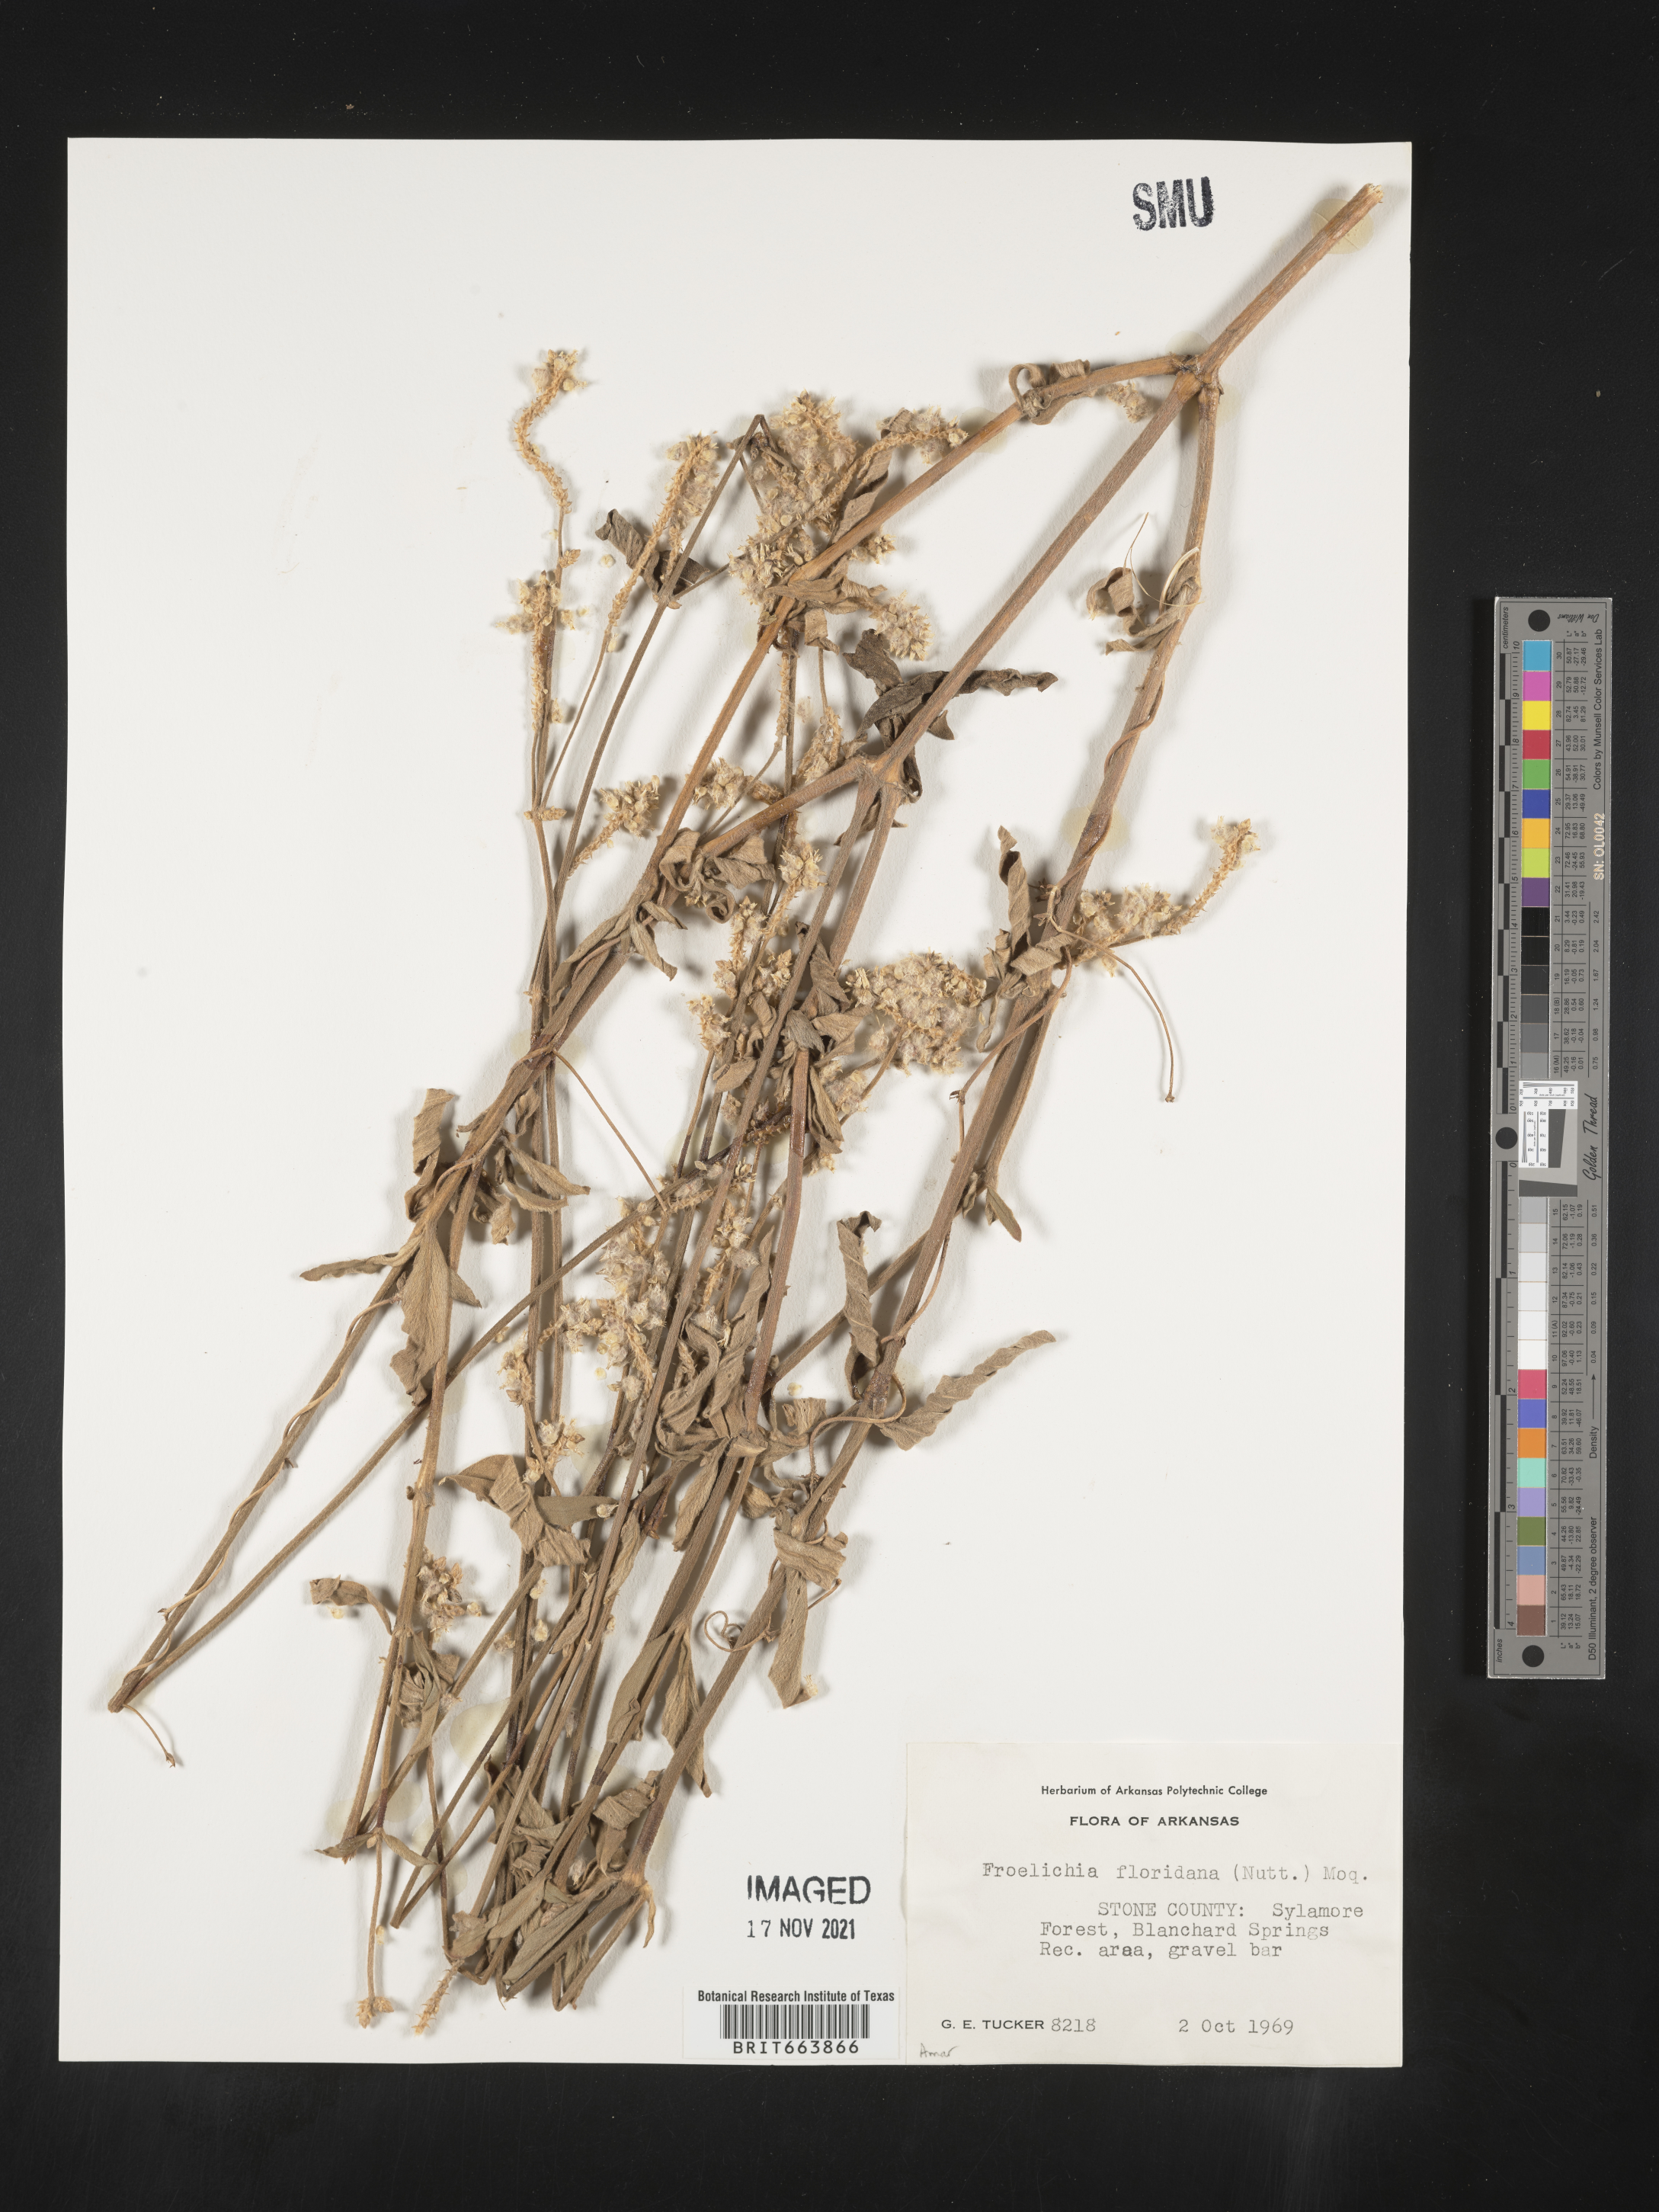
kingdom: Plantae
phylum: Tracheophyta
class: Magnoliopsida
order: Caryophyllales
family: Amaranthaceae
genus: Froelichia
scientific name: Froelichia floridana
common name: Florida snake-cotton
